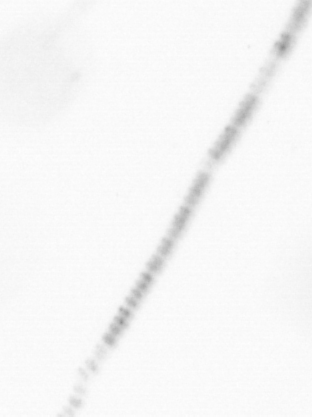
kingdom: Chromista
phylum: Ochrophyta
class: Bacillariophyceae
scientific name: Bacillariophyceae
